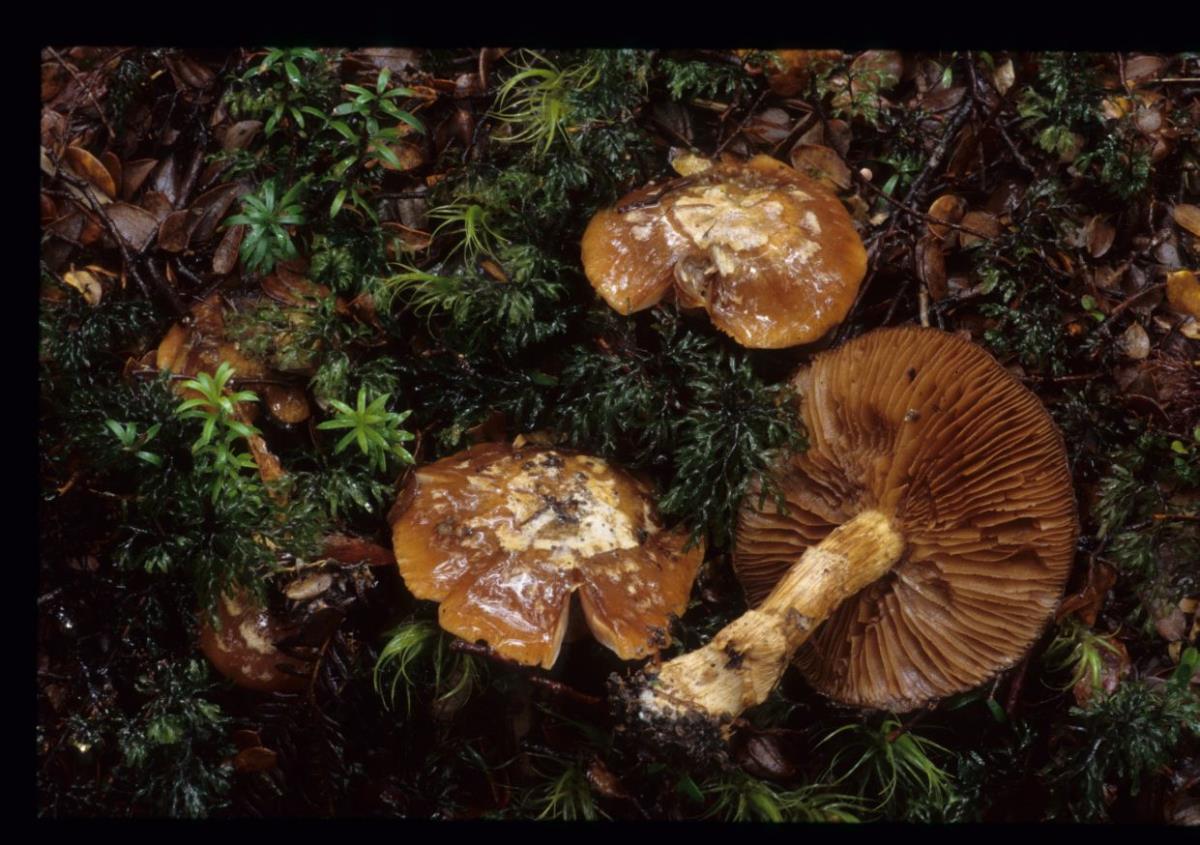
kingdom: Fungi
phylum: Basidiomycota
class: Agaricomycetes
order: Agaricales
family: Cortinariaceae
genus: Cortinarius
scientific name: Cortinarius
